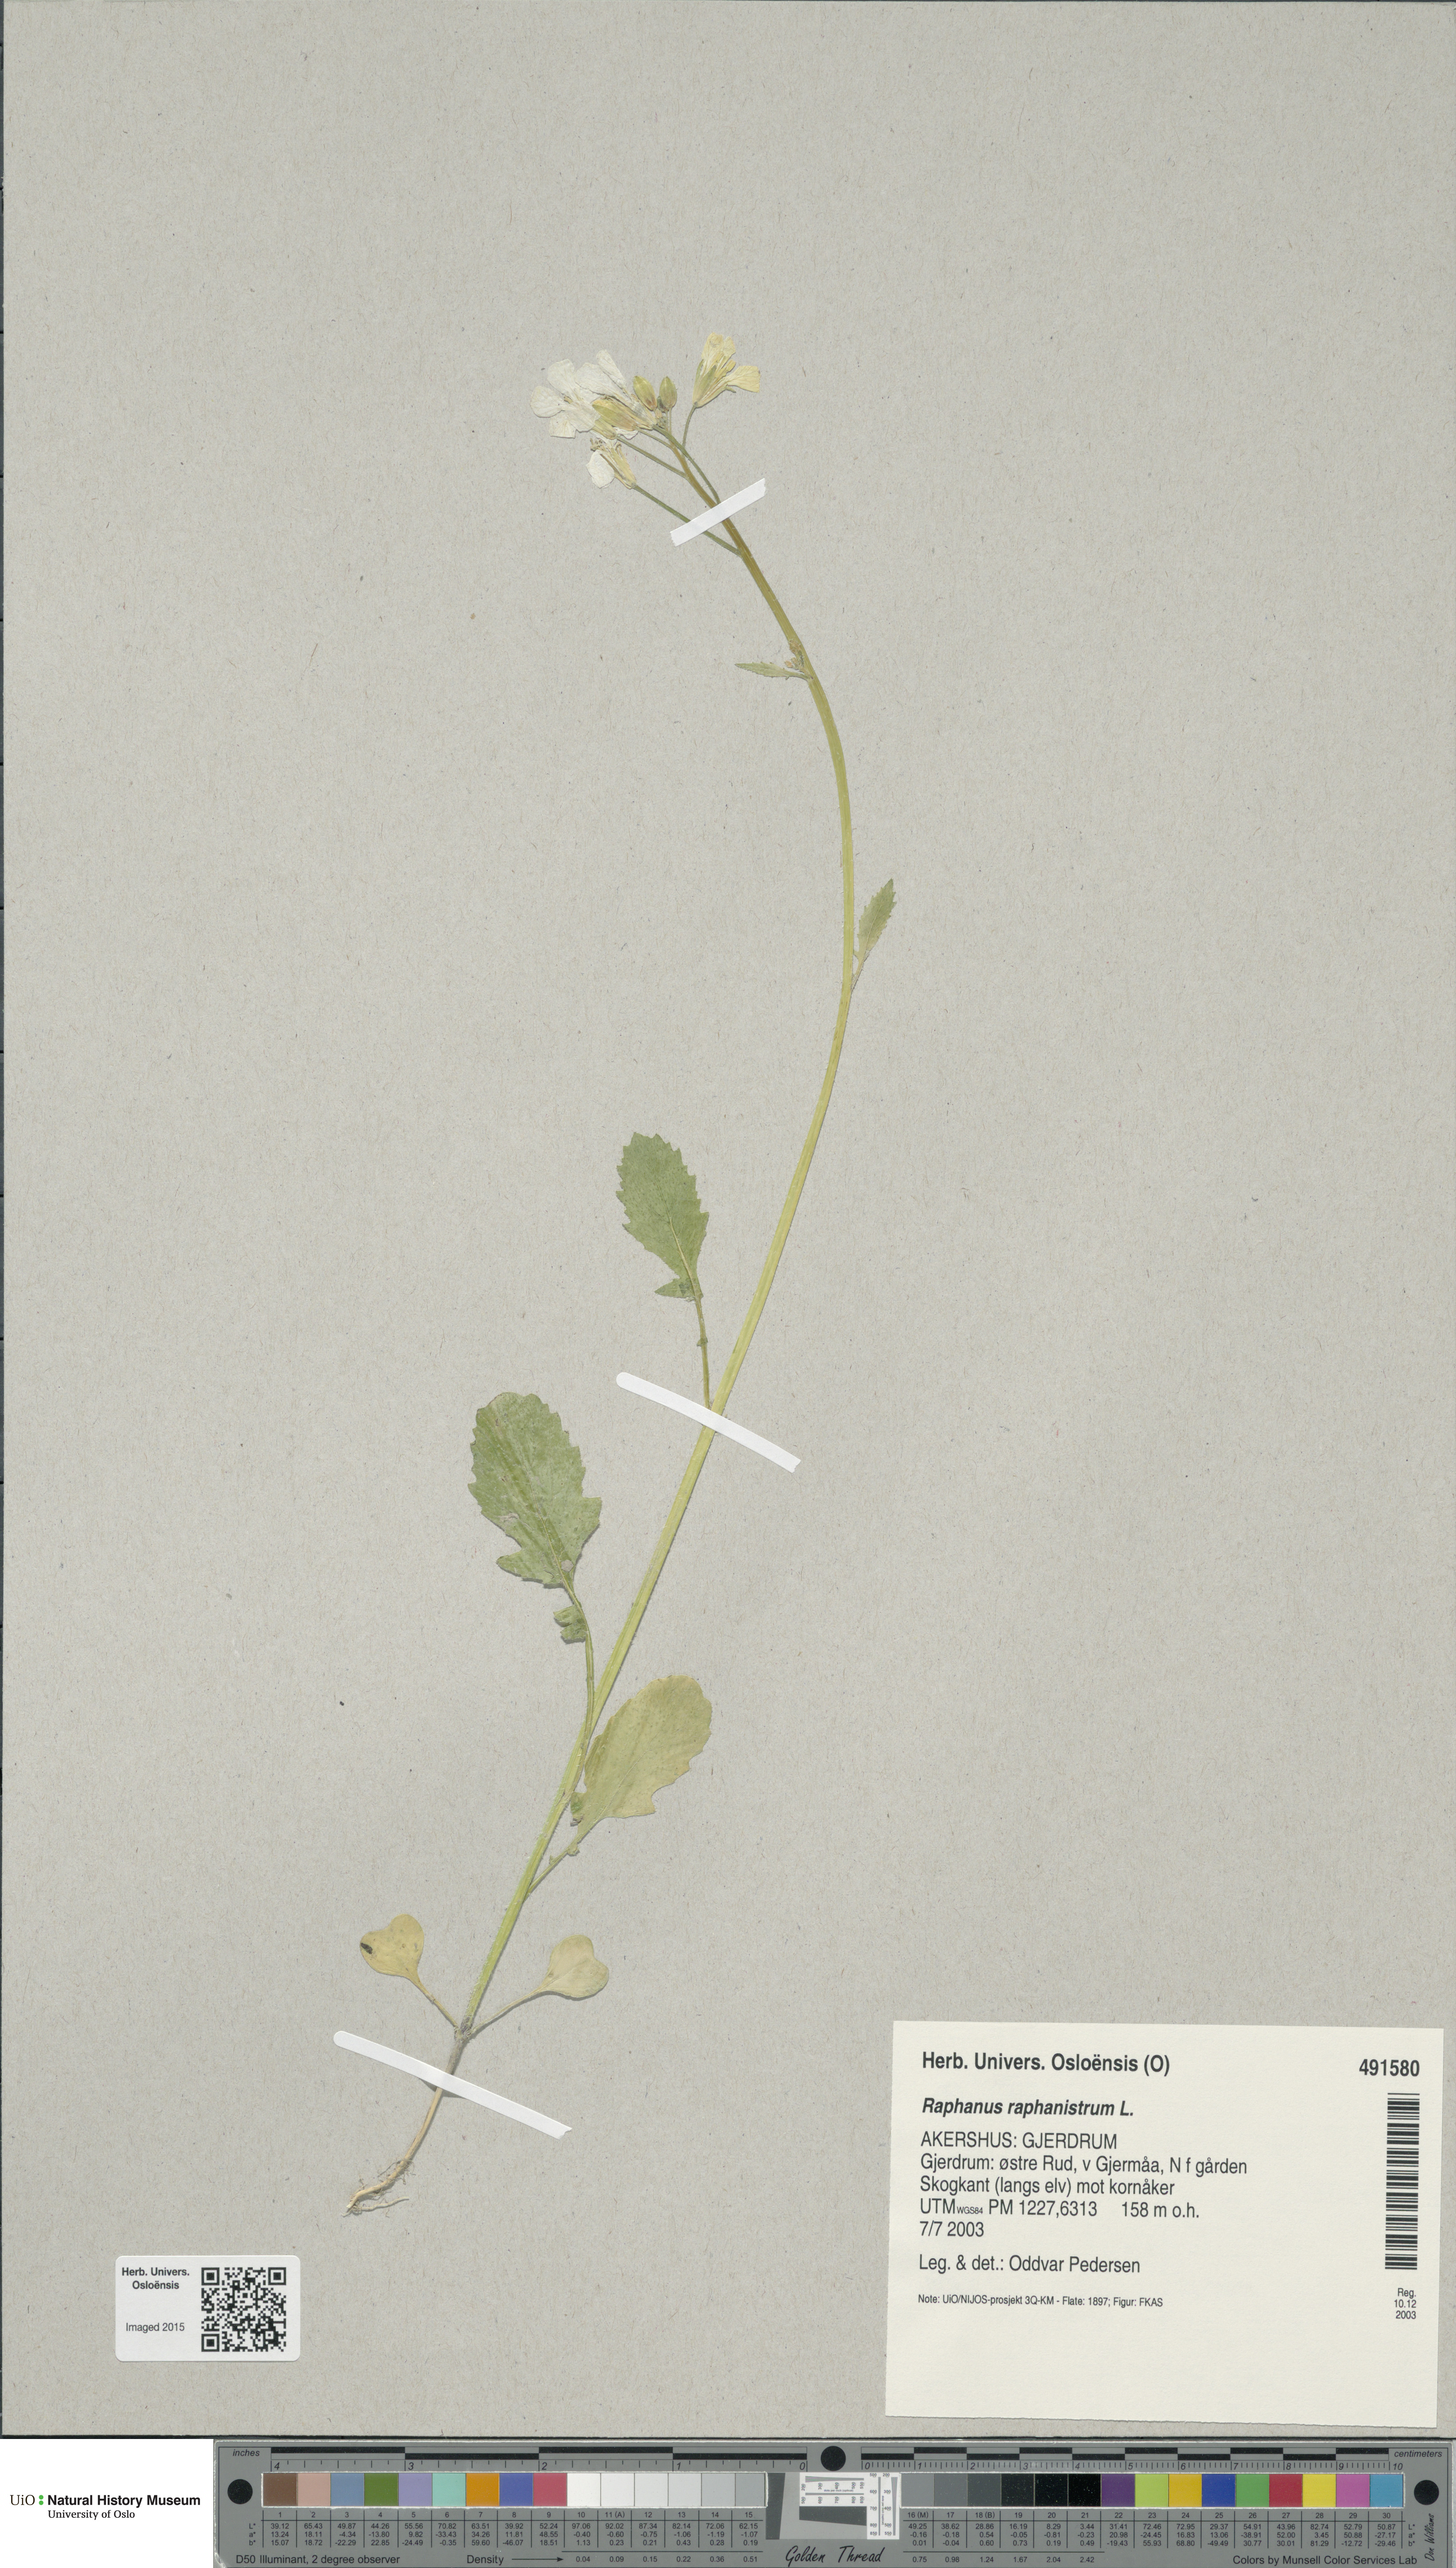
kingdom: Plantae
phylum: Tracheophyta
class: Magnoliopsida
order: Brassicales
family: Brassicaceae
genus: Raphanus
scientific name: Raphanus raphanistrum
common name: Wild radish
